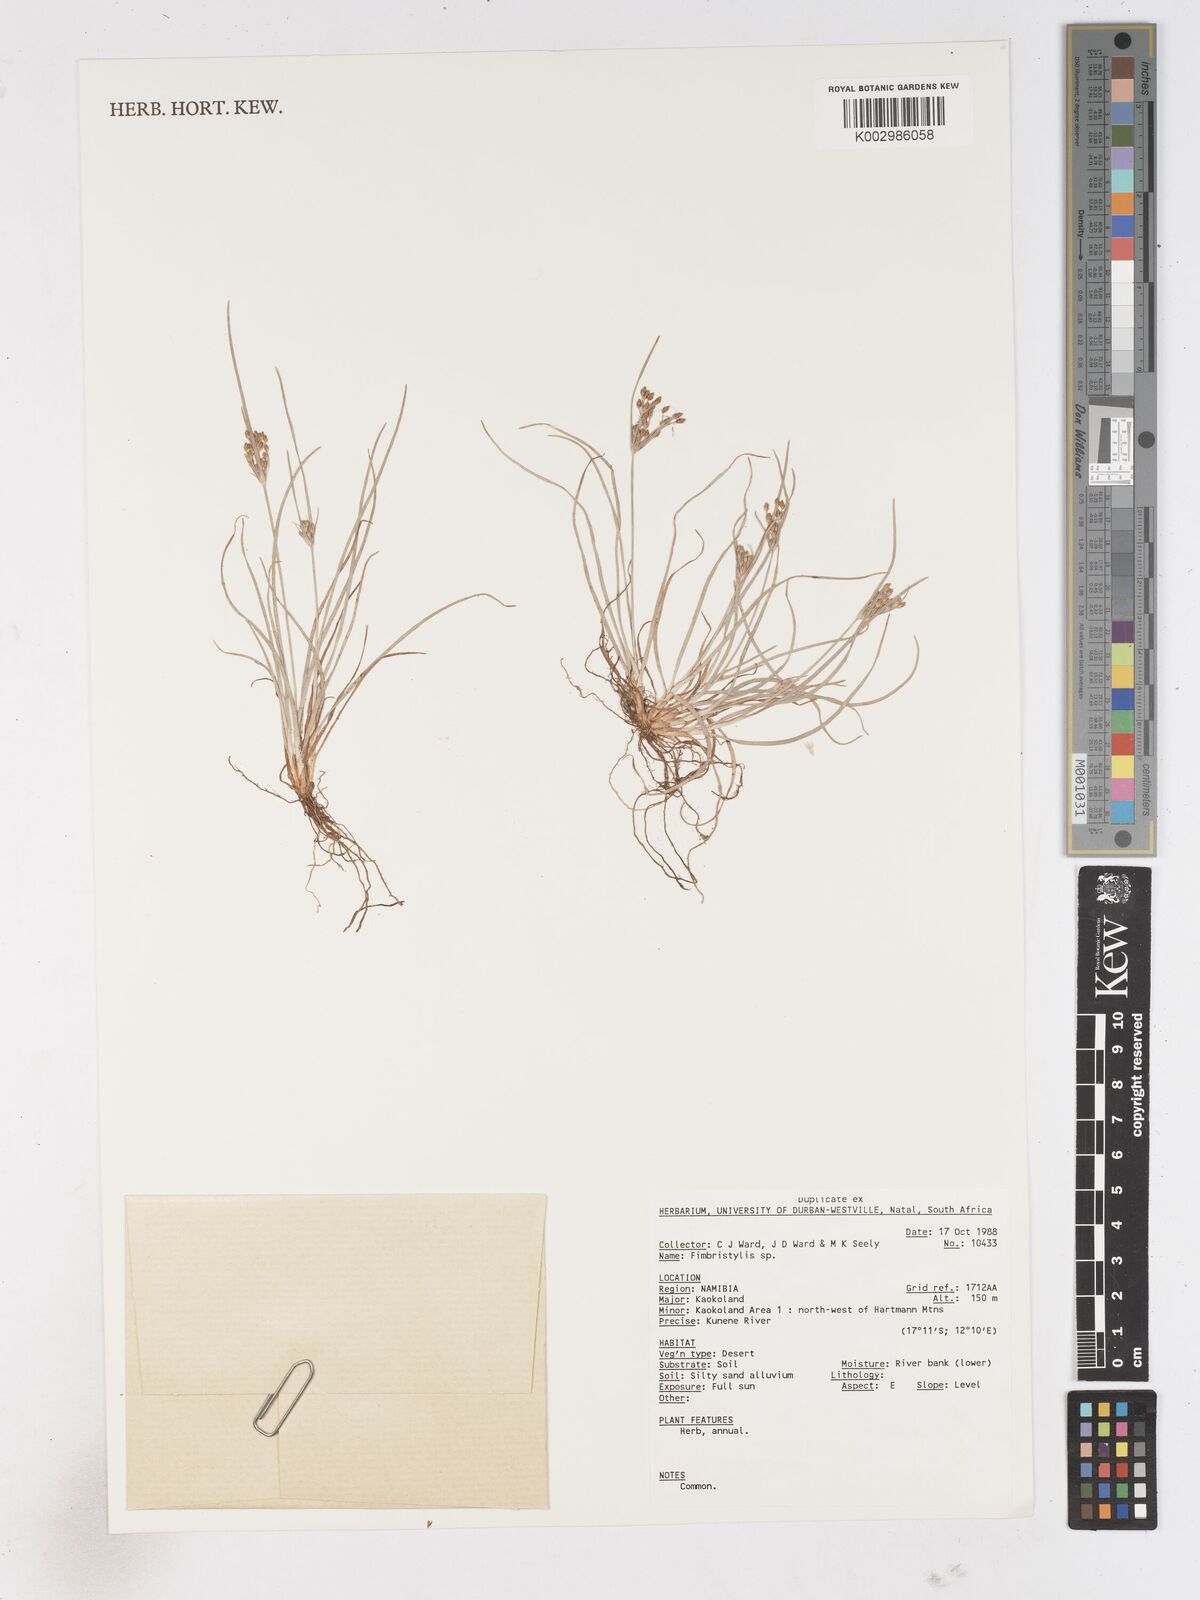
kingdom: Plantae
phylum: Tracheophyta
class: Liliopsida
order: Poales
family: Cyperaceae
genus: Fimbristylis
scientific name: Fimbristylis
